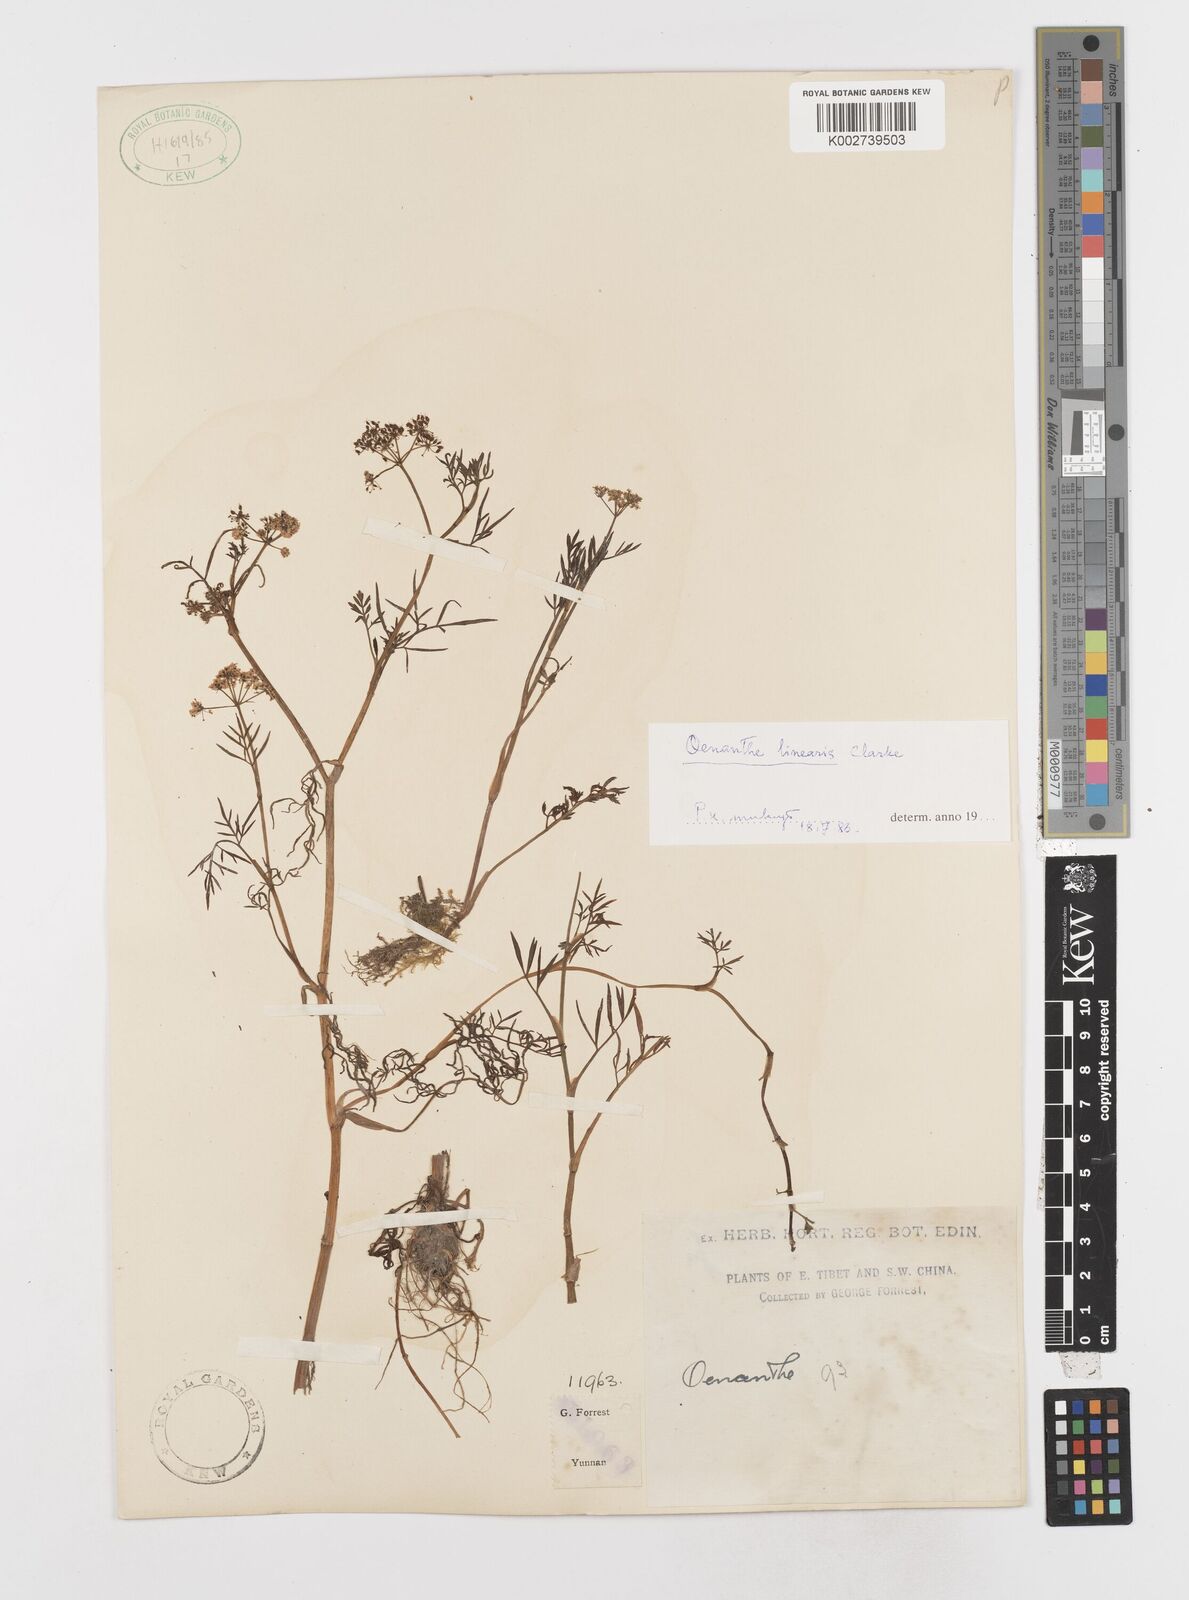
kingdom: Plantae
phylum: Tracheophyta
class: Magnoliopsida
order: Apiales
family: Apiaceae
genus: Oenanthe
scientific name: Oenanthe linearis
